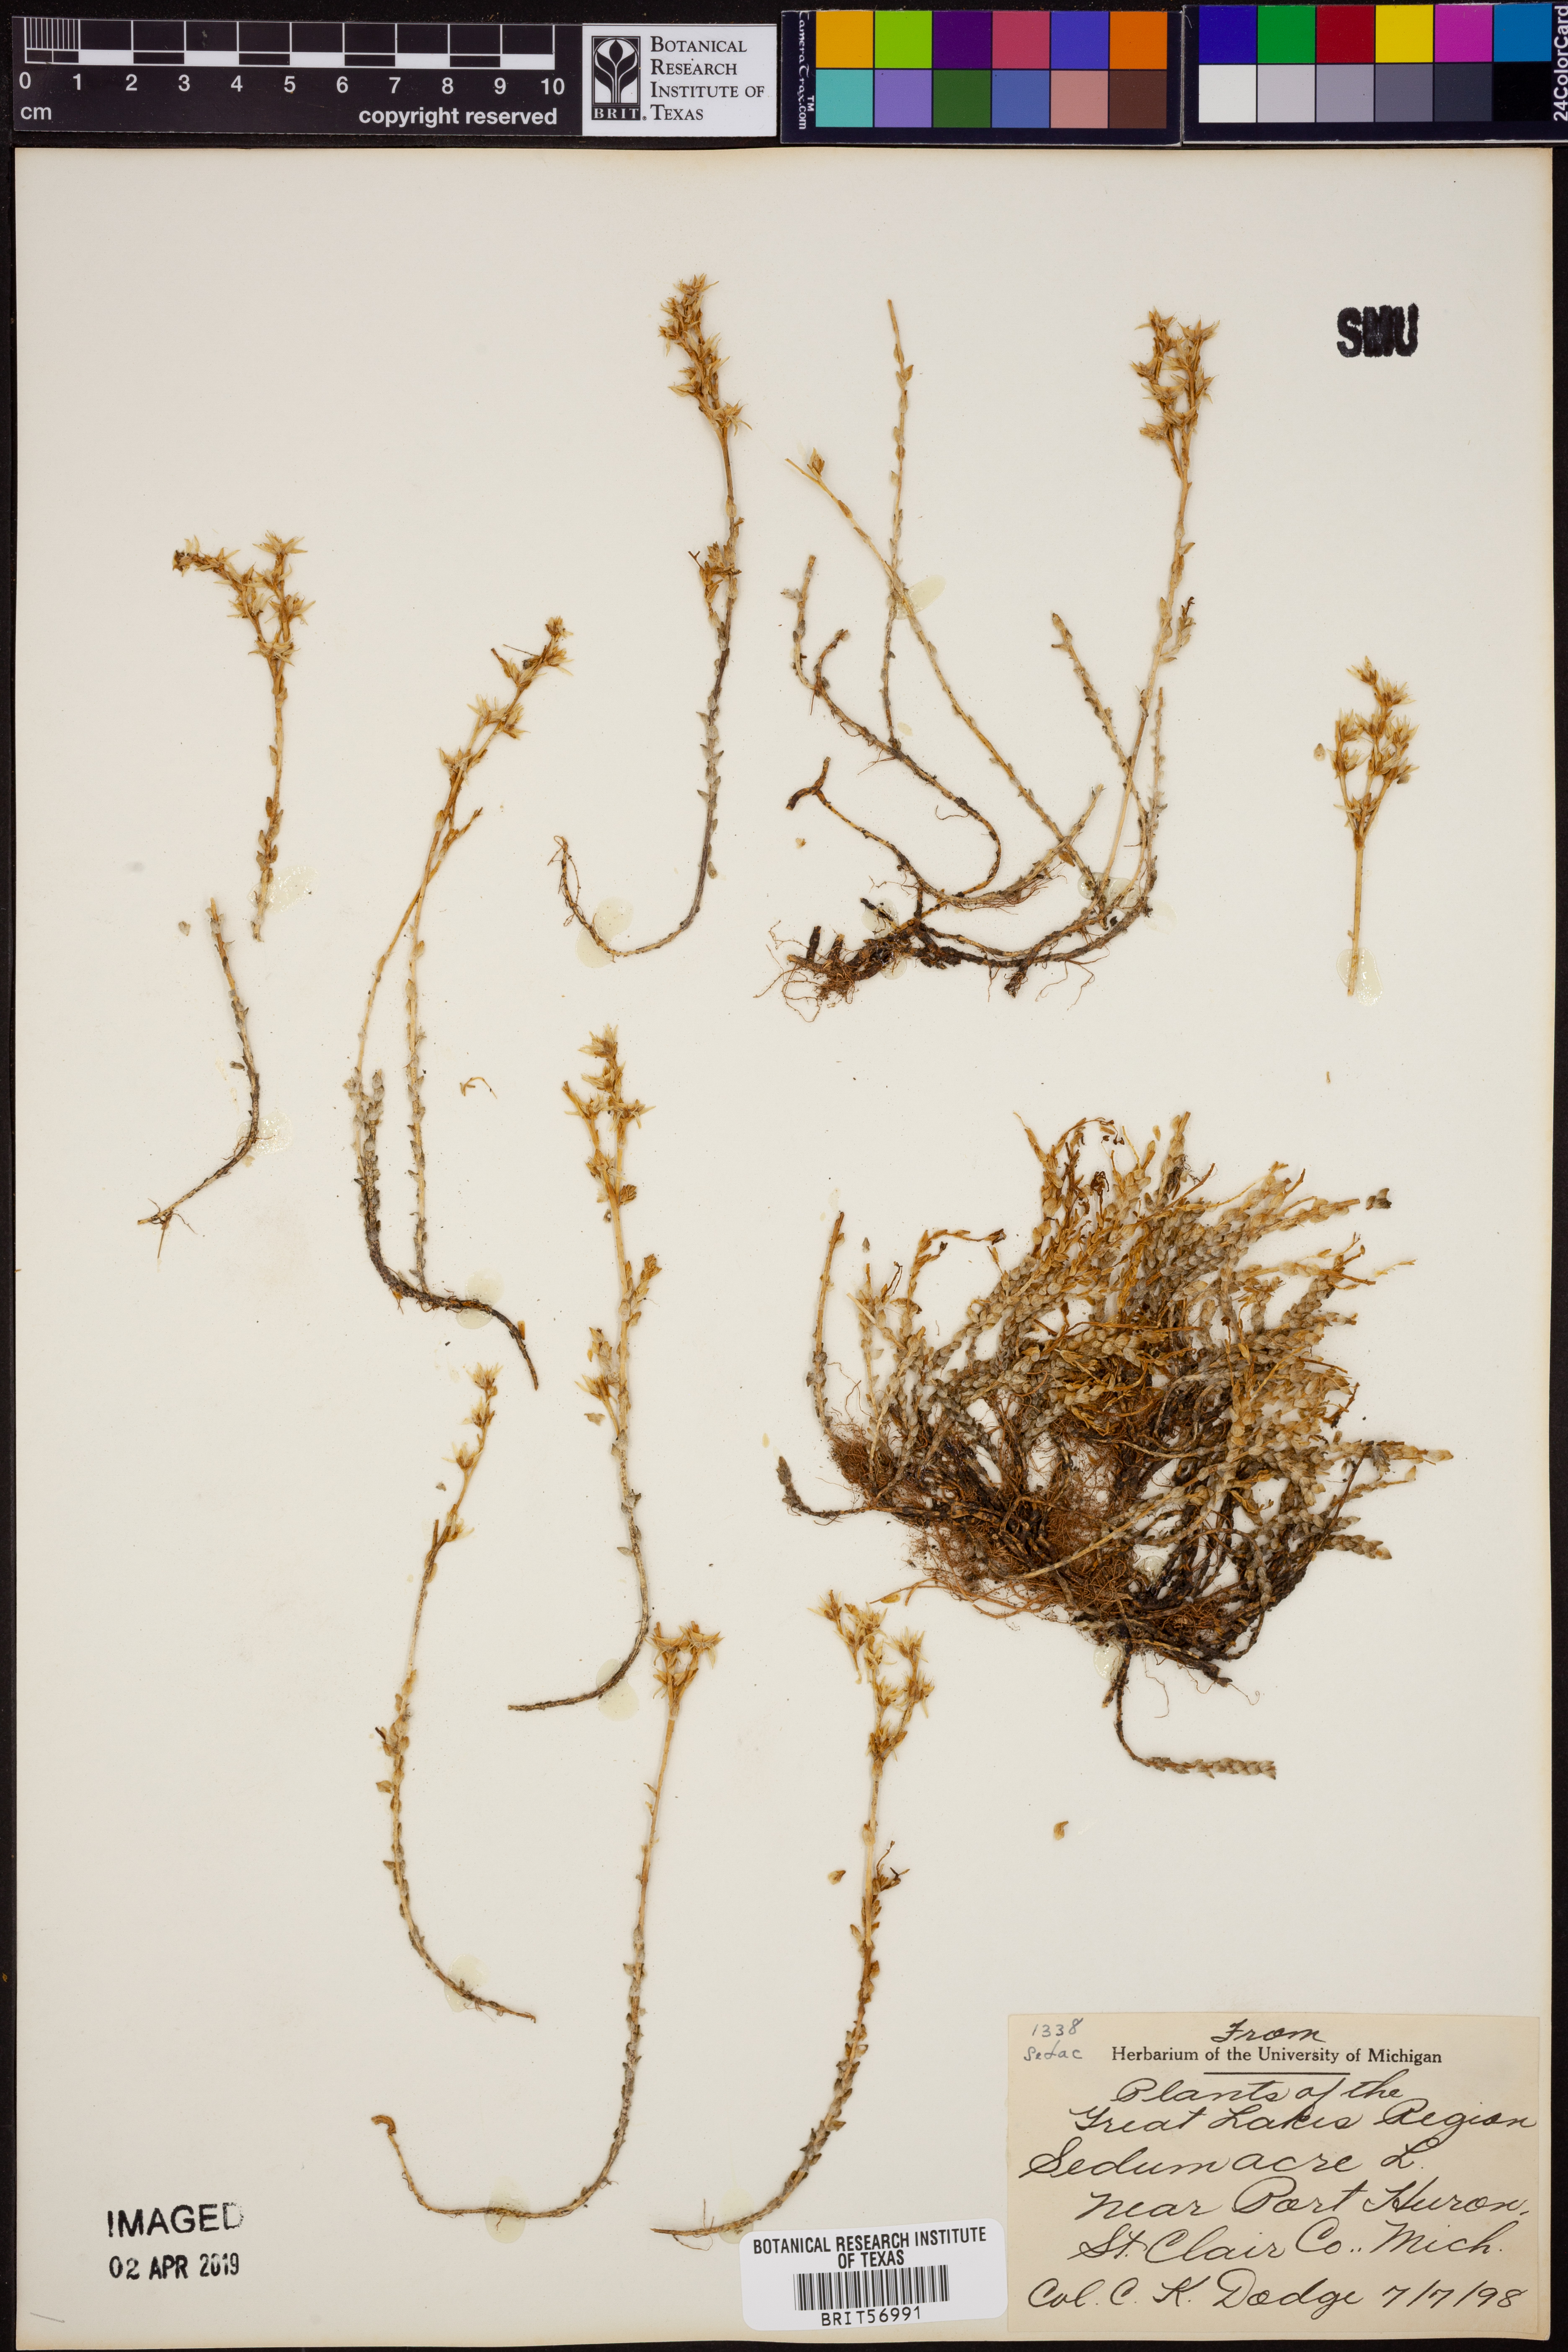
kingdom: Plantae
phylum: Tracheophyta
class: Magnoliopsida
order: Saxifragales
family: Crassulaceae
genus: Sedum
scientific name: Sedum acre
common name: Biting stonecrop
